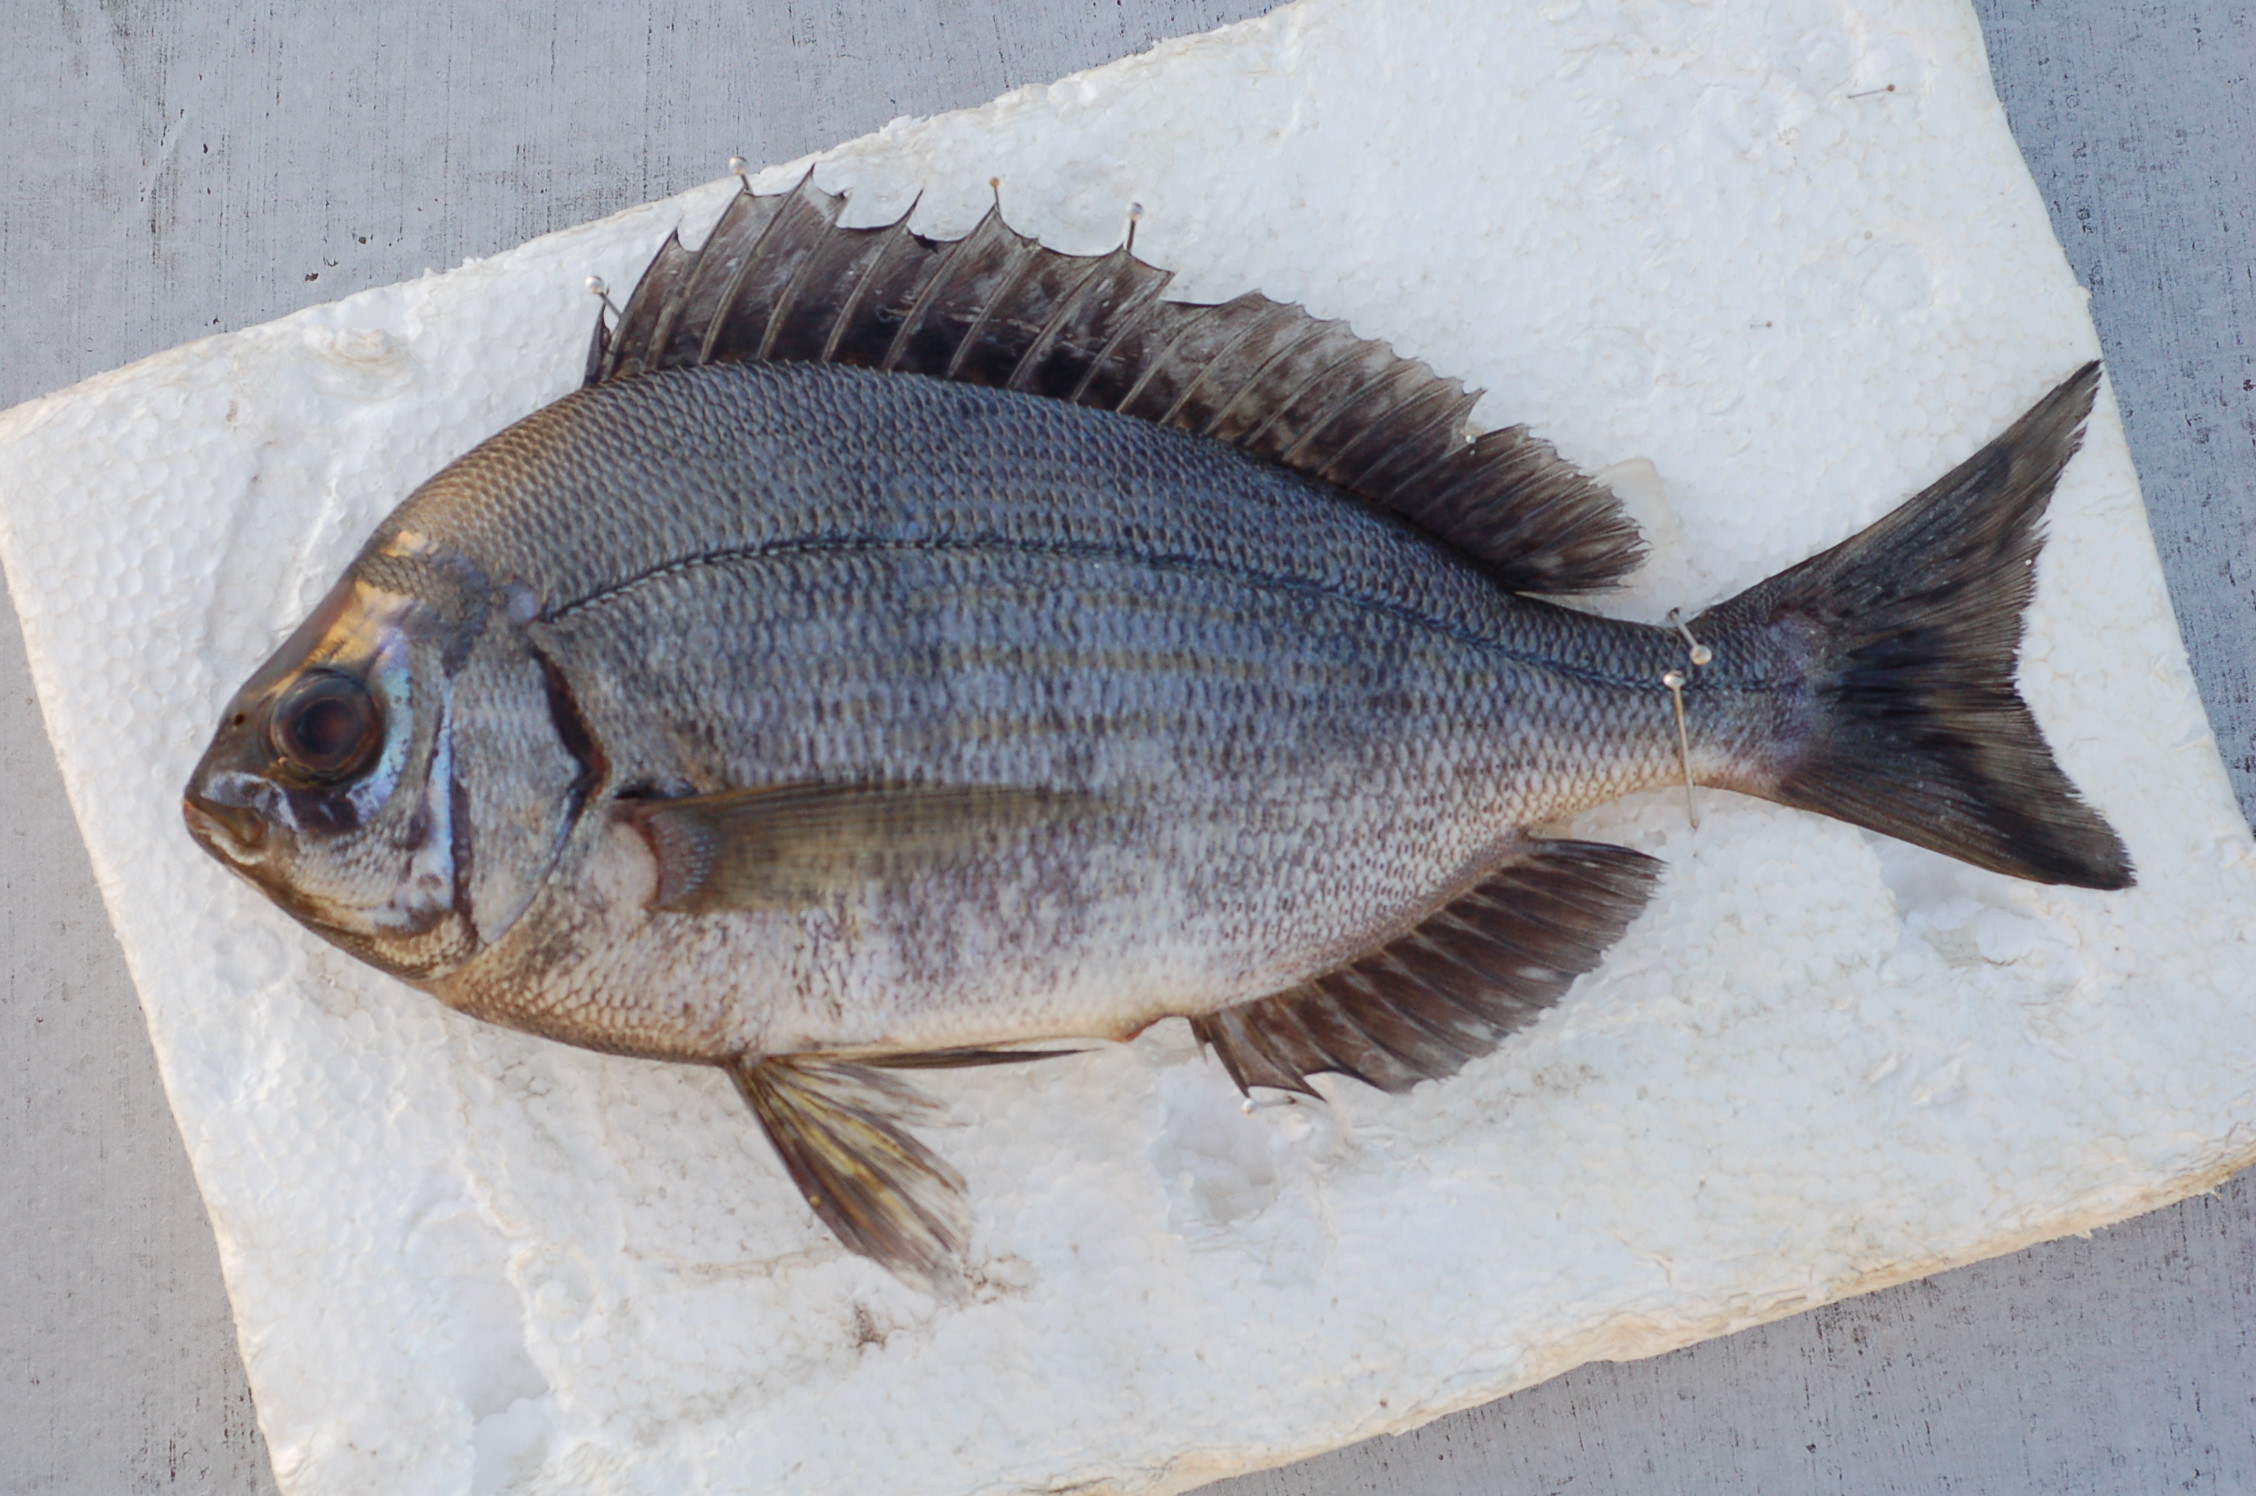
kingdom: Animalia
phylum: Chordata
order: Perciformes
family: Sparidae
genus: Spondyliosoma
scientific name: Spondyliosoma cantharus
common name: Black seabream
